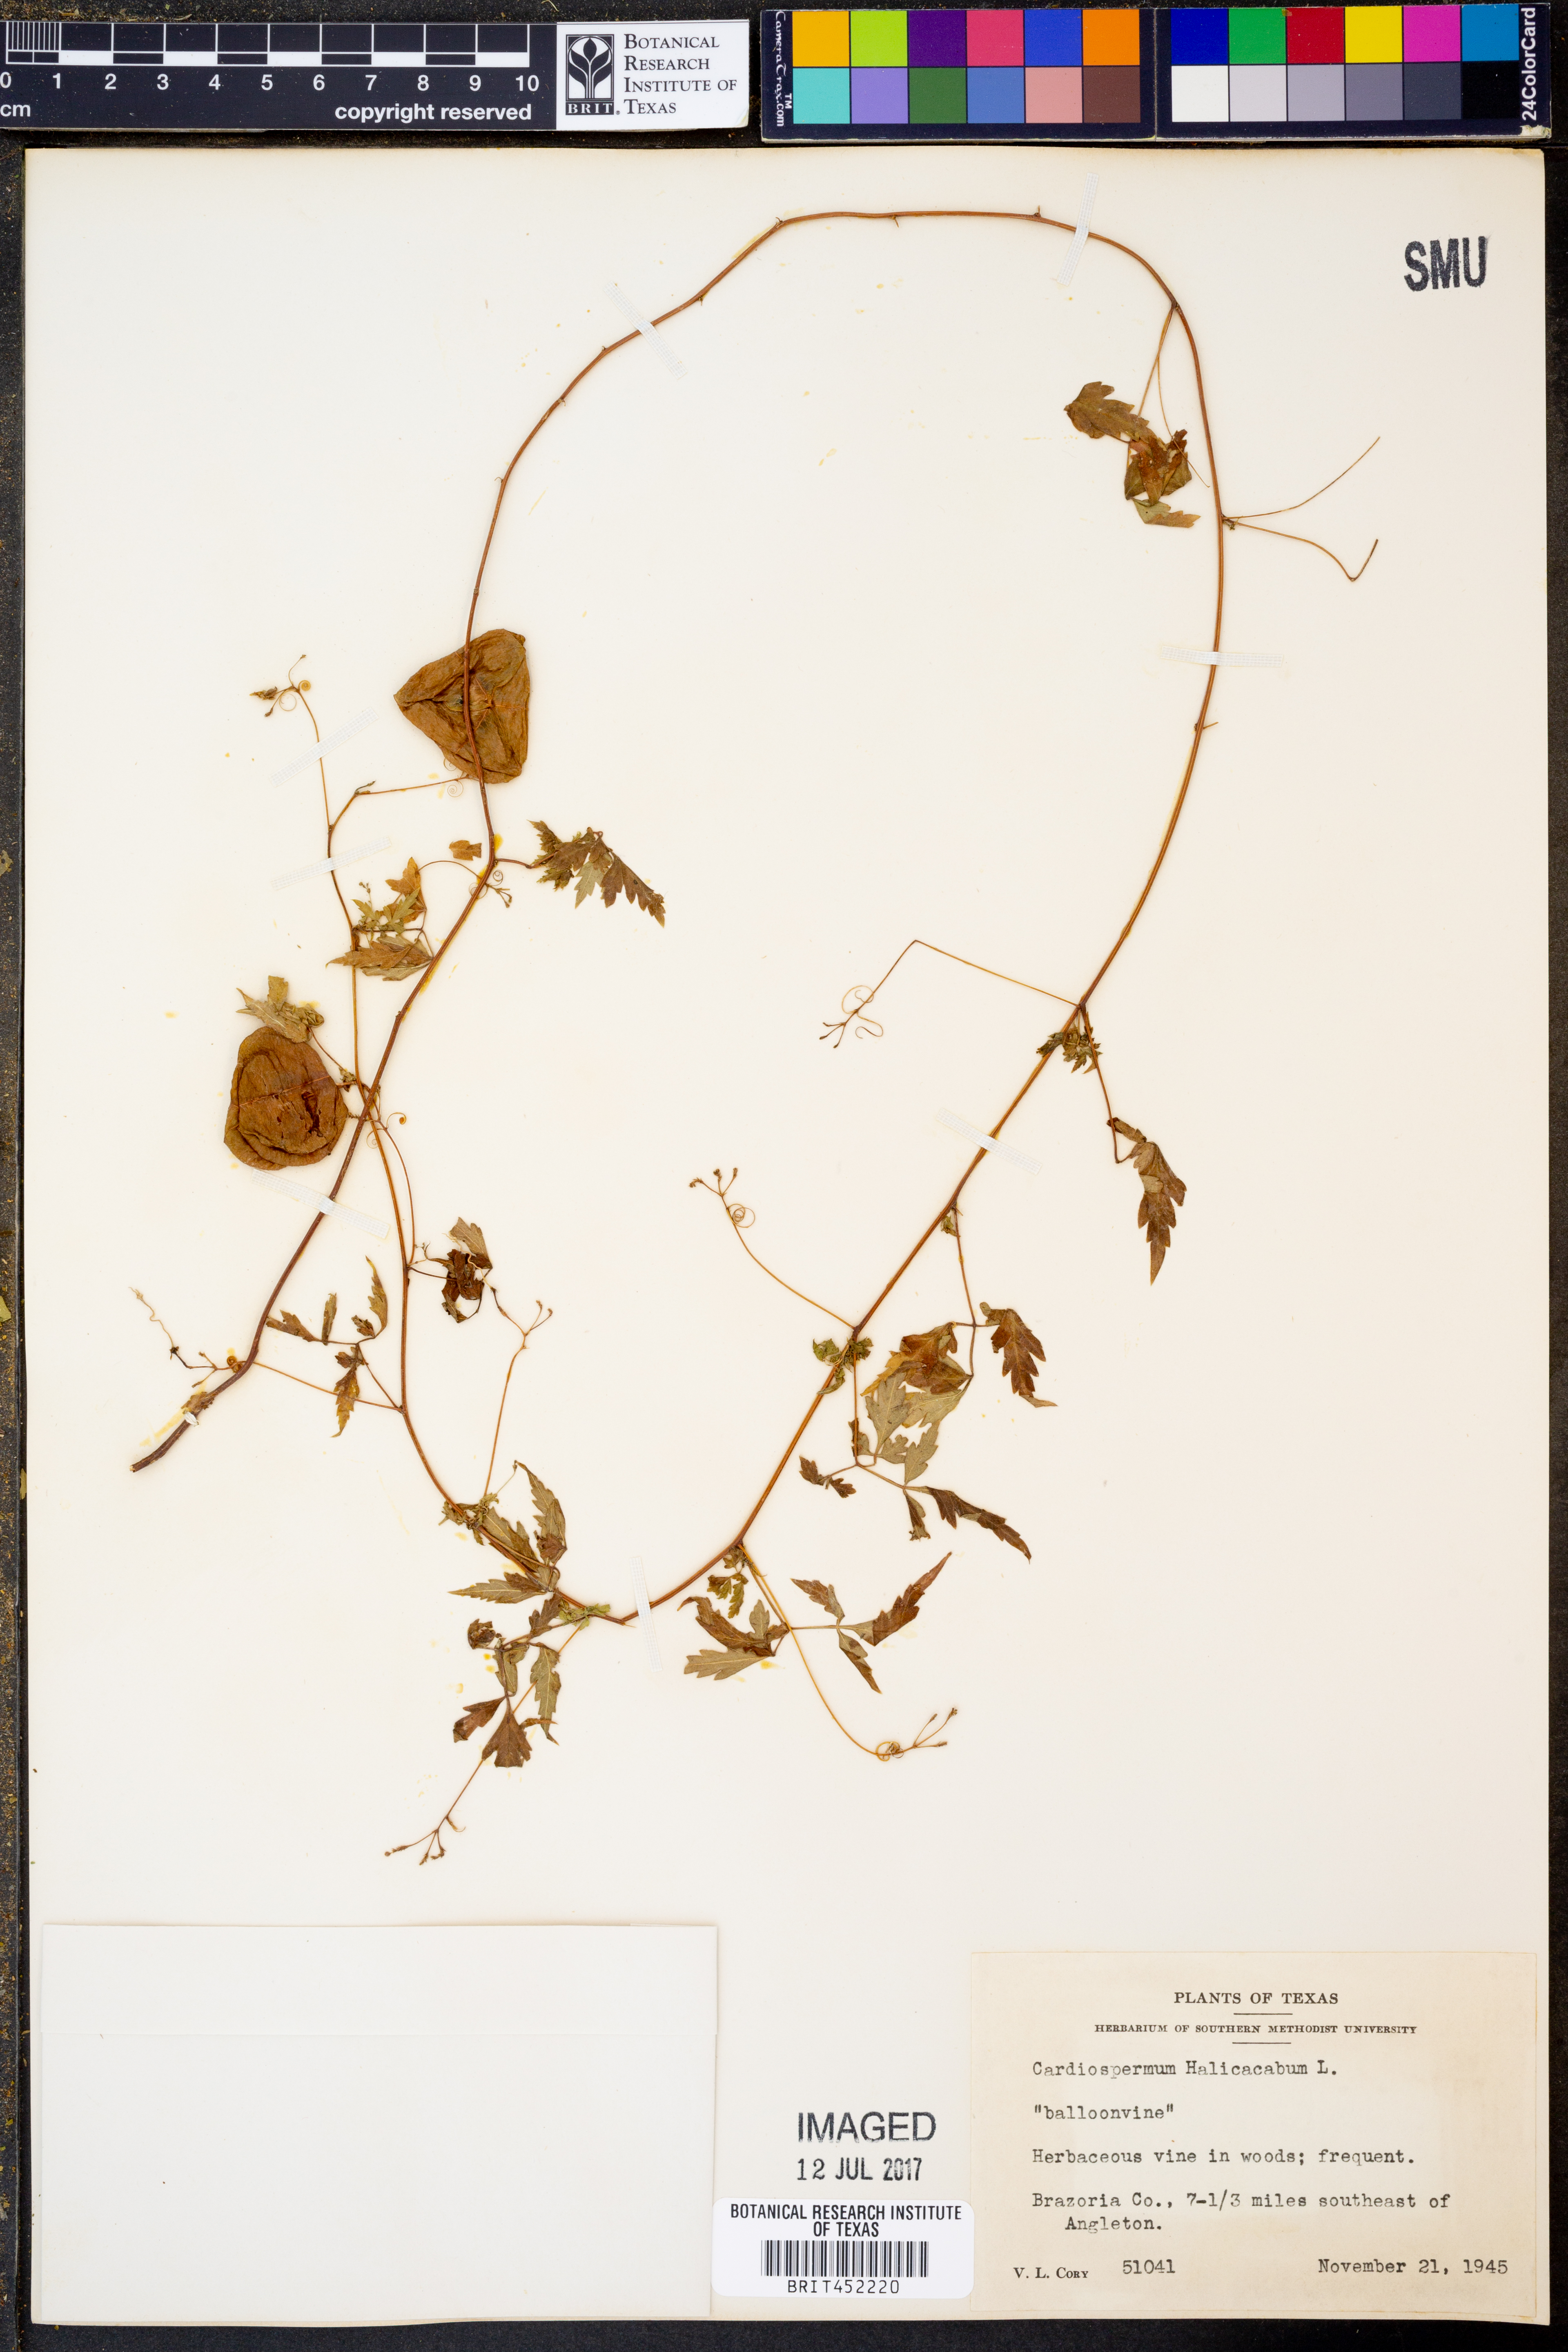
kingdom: Plantae
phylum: Tracheophyta
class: Magnoliopsida
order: Sapindales
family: Sapindaceae
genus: Cardiospermum
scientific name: Cardiospermum halicacabum
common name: Balloon vine
